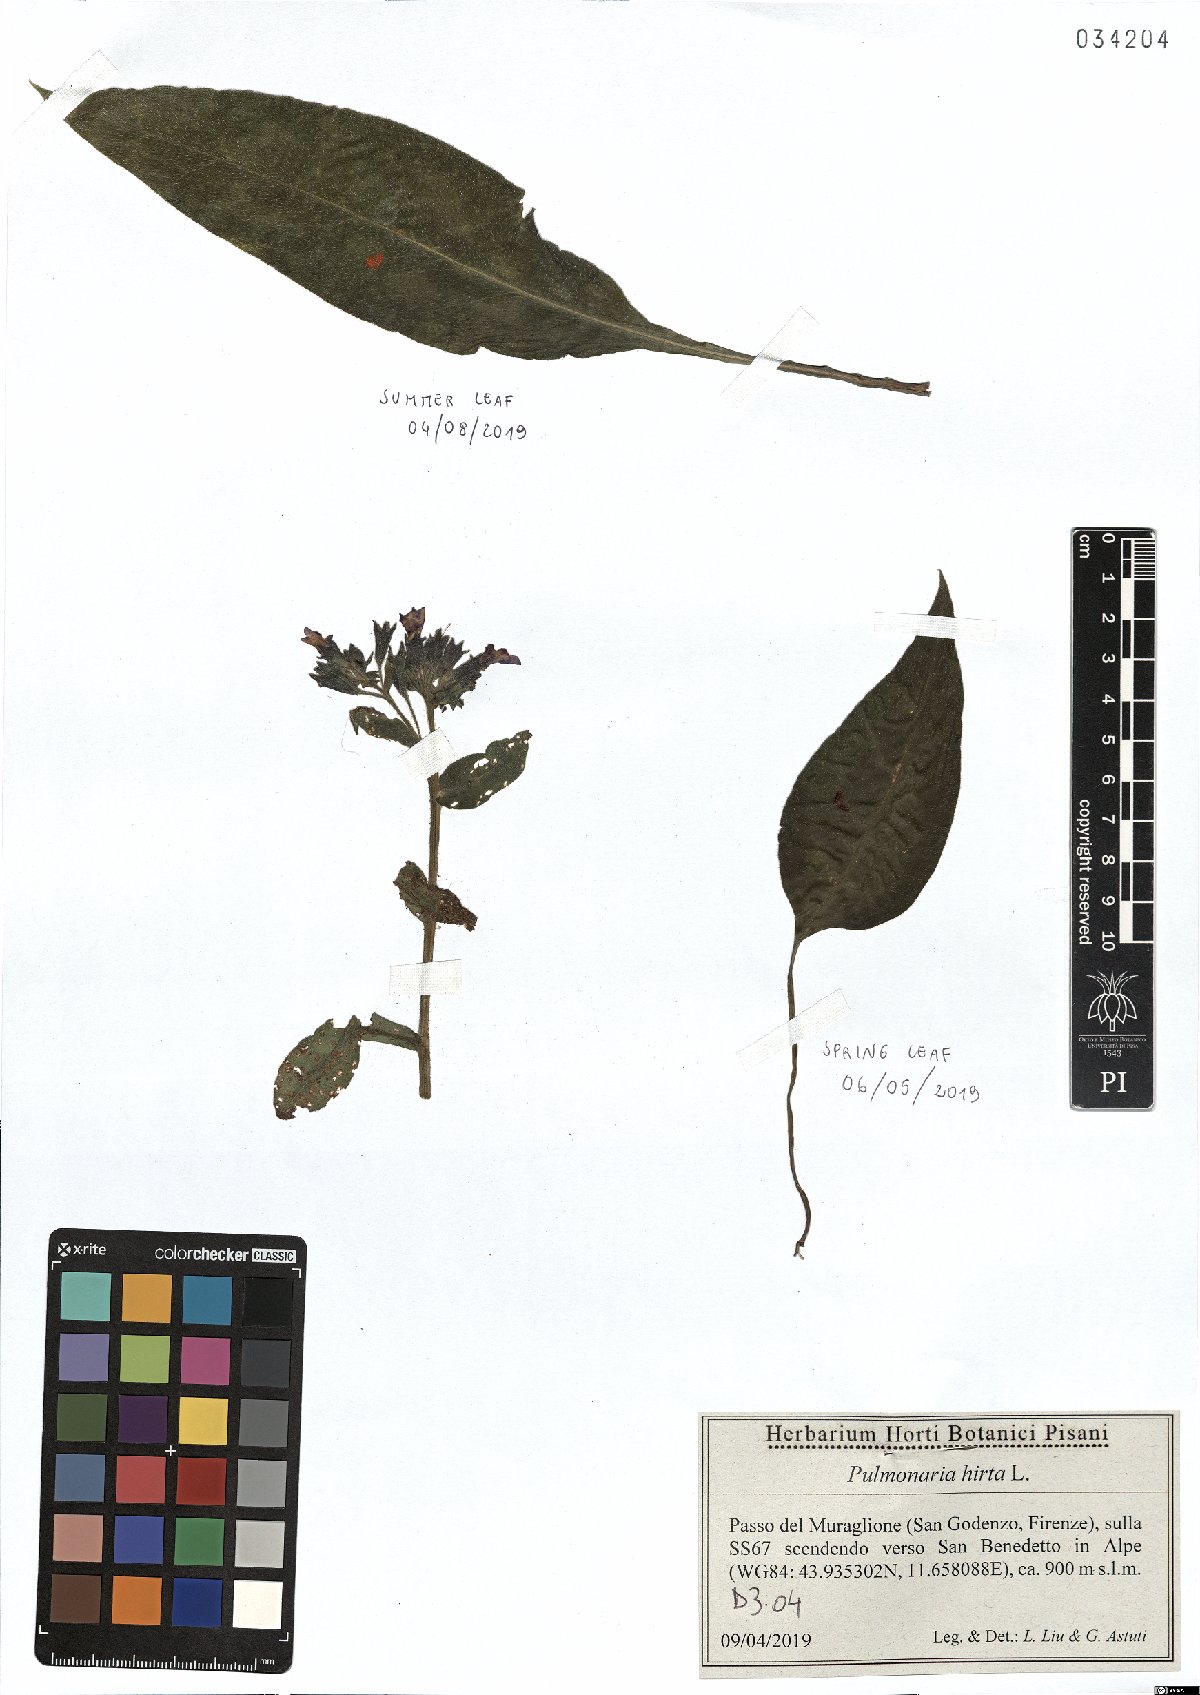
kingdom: Plantae
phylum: Tracheophyta
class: Magnoliopsida
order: Boraginales
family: Boraginaceae
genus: Pulmonaria
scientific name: Pulmonaria hirta
